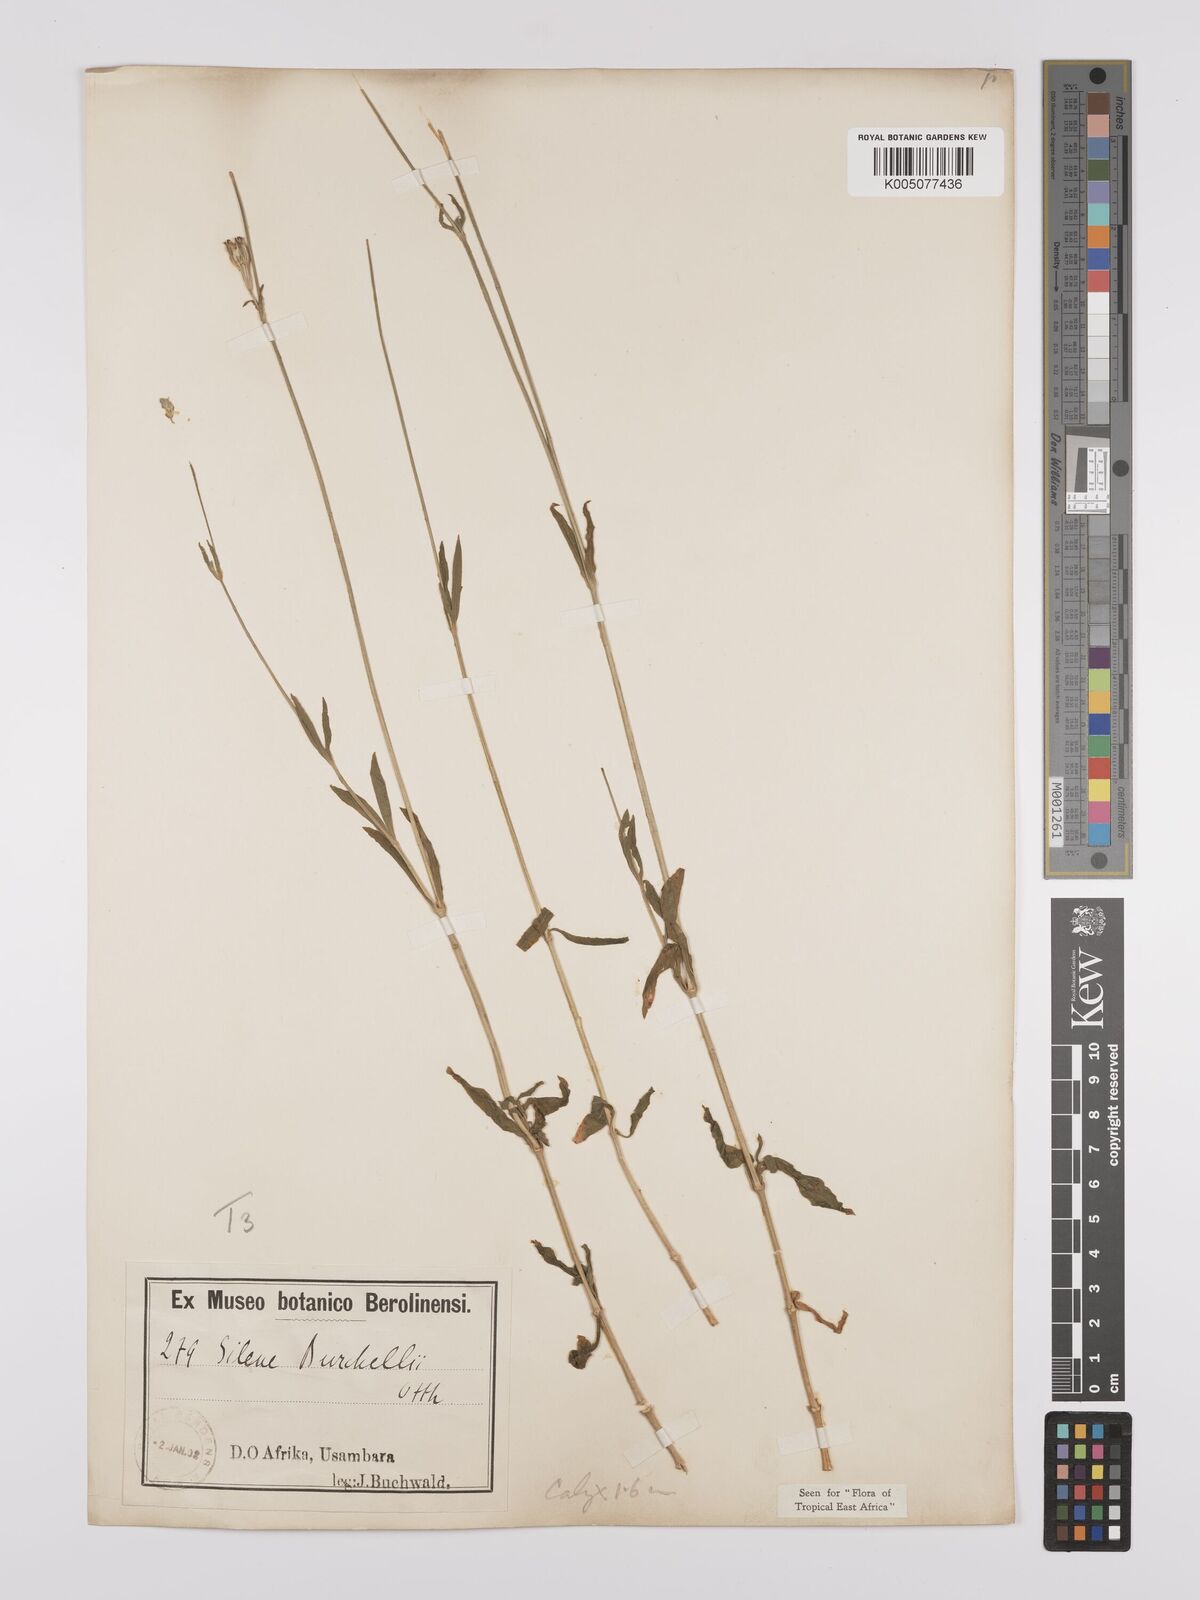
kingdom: Plantae
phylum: Tracheophyta
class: Magnoliopsida
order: Caryophyllales
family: Caryophyllaceae
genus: Silene
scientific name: Silene burchellii
